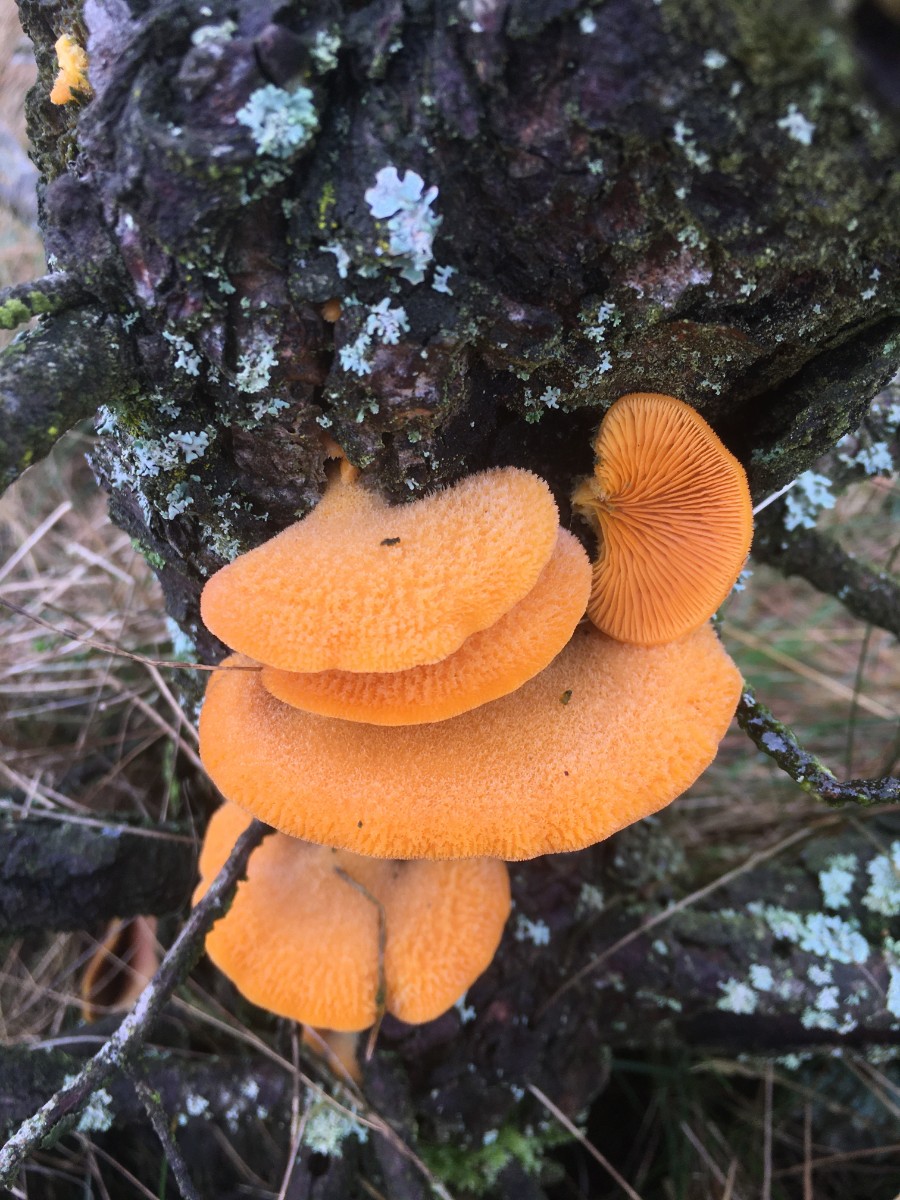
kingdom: Fungi
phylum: Basidiomycota
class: Agaricomycetes
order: Agaricales
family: Phyllotopsidaceae
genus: Phyllotopsis
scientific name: Phyllotopsis nidulans
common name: okkerblad
